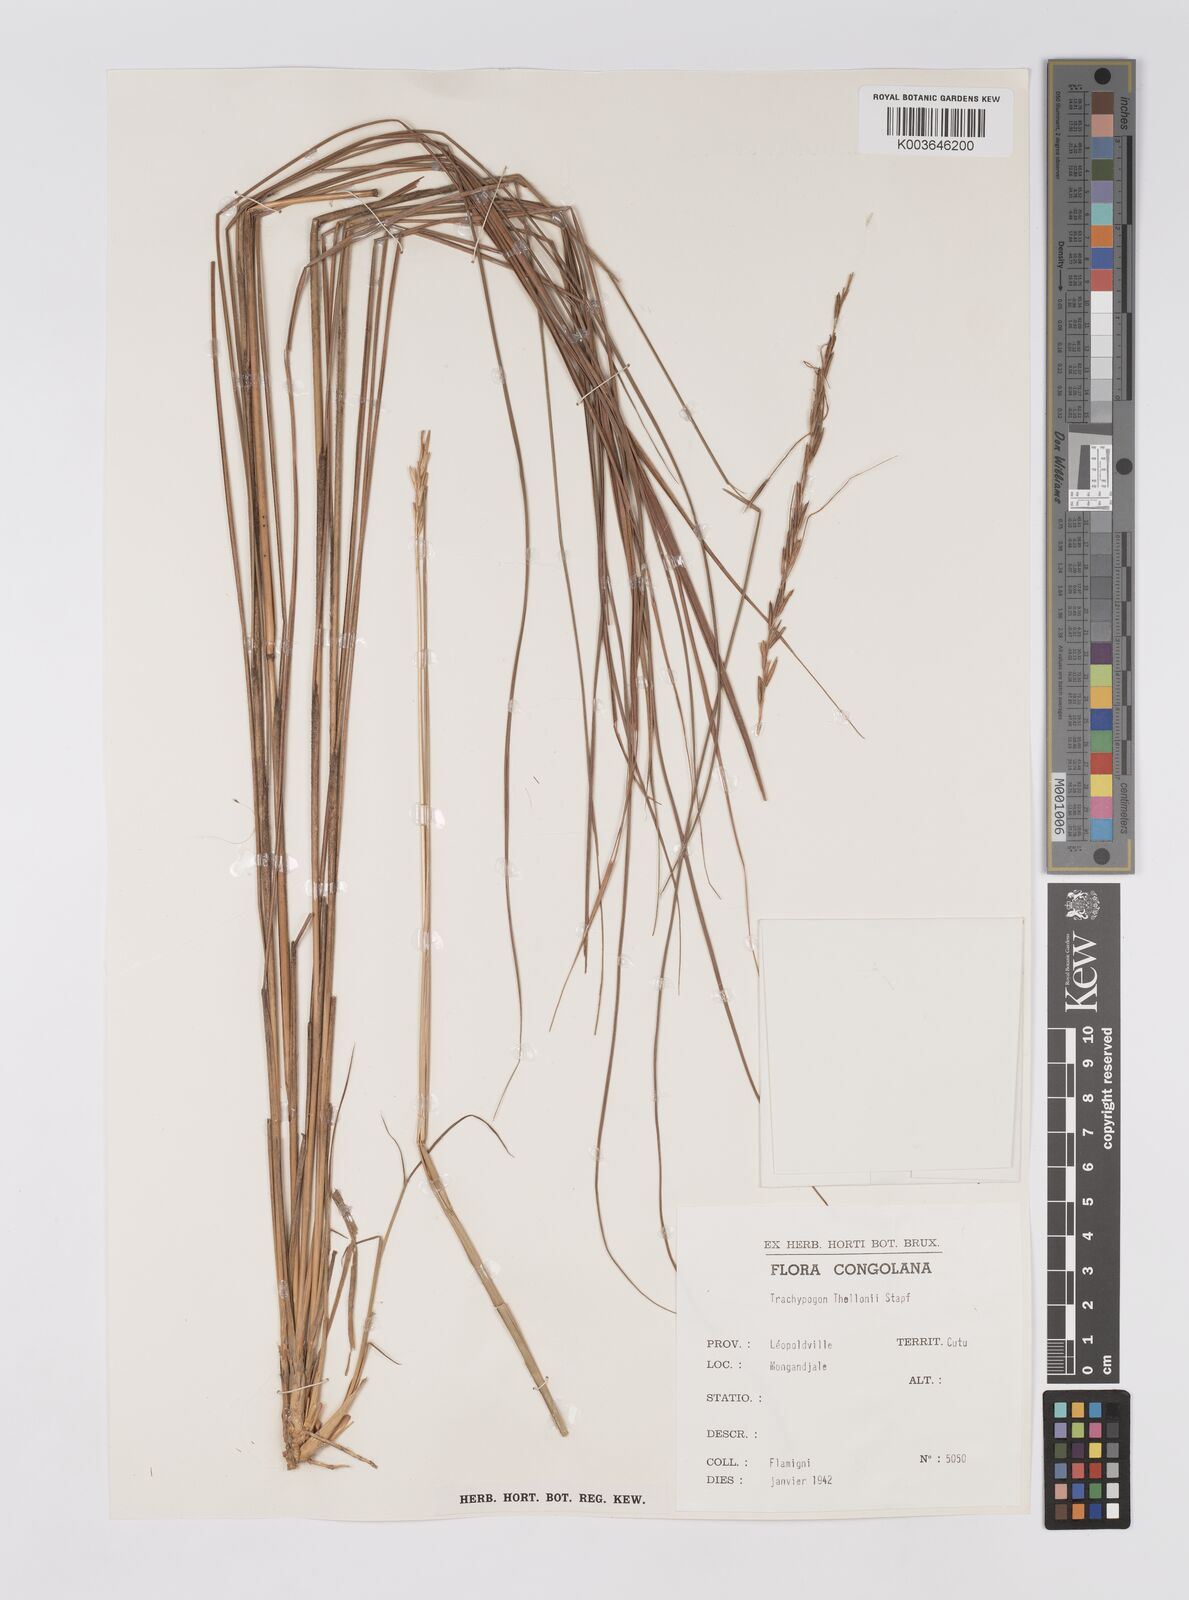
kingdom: Plantae
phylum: Tracheophyta
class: Liliopsida
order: Poales
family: Poaceae
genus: Trachypogon
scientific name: Trachypogon spicatus
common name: Crinkle-awn
